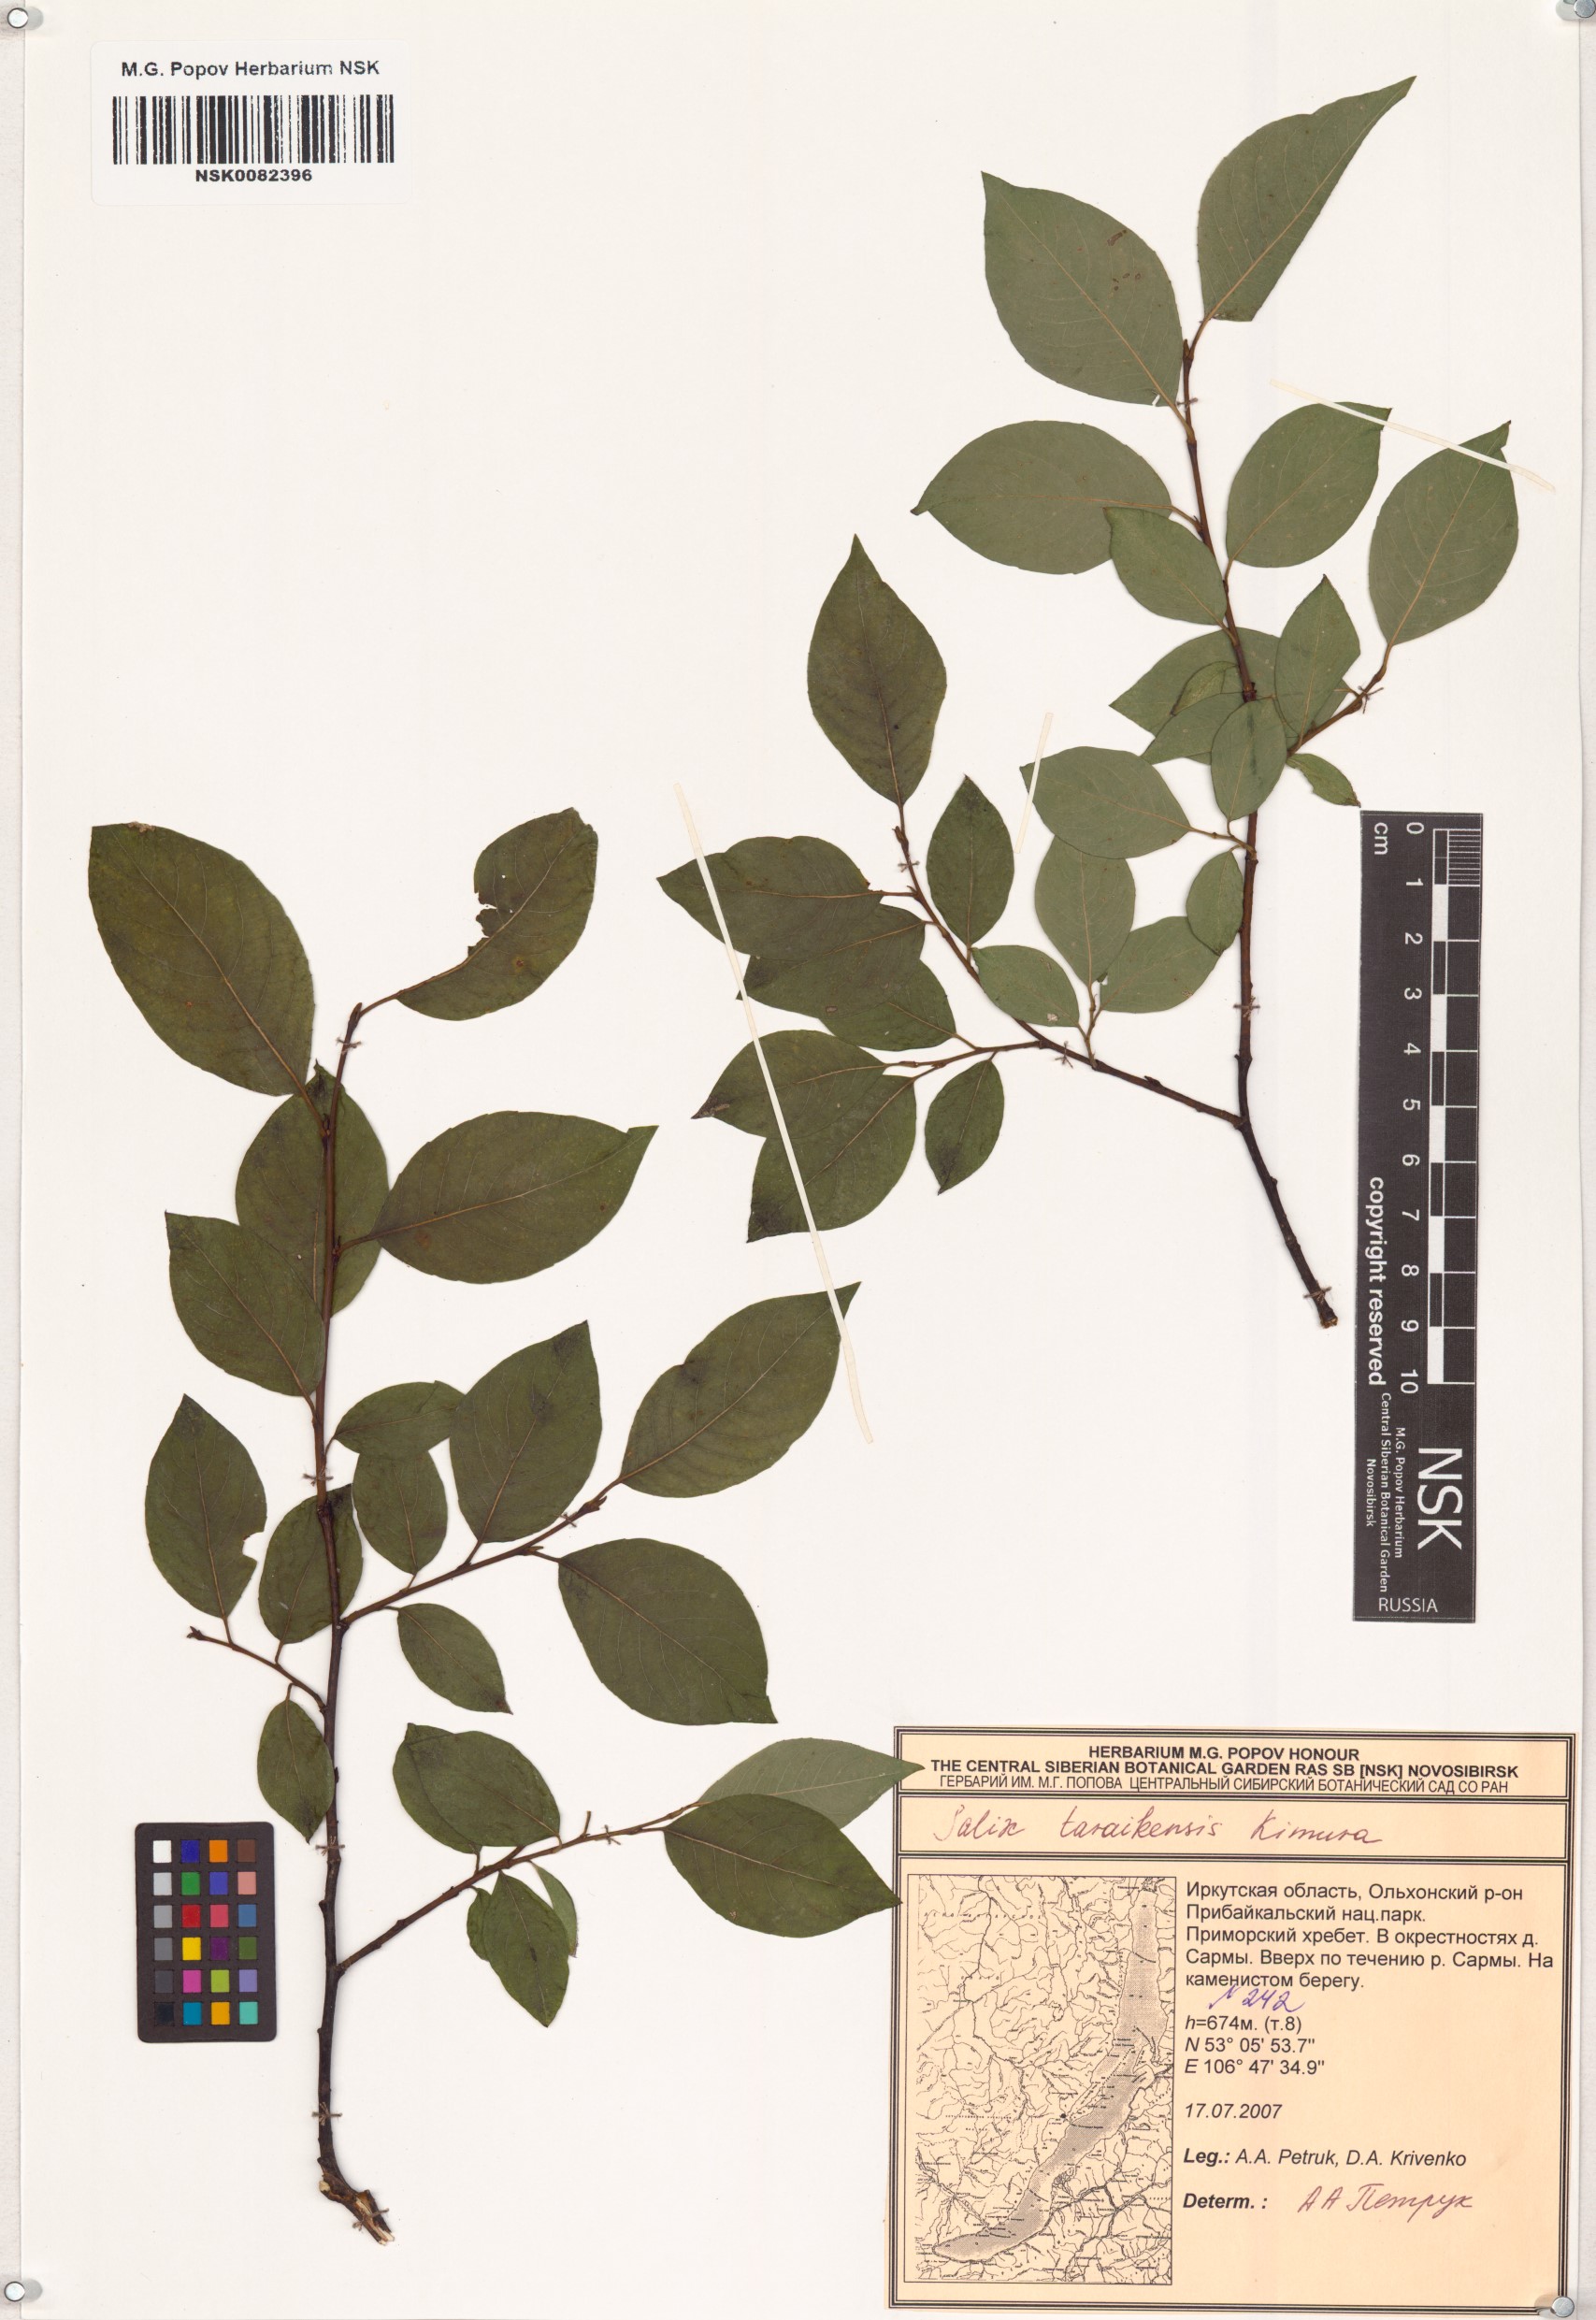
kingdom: Plantae
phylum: Tracheophyta
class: Magnoliopsida
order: Malpighiales
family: Salicaceae
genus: Salix
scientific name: Salix taraikensis
